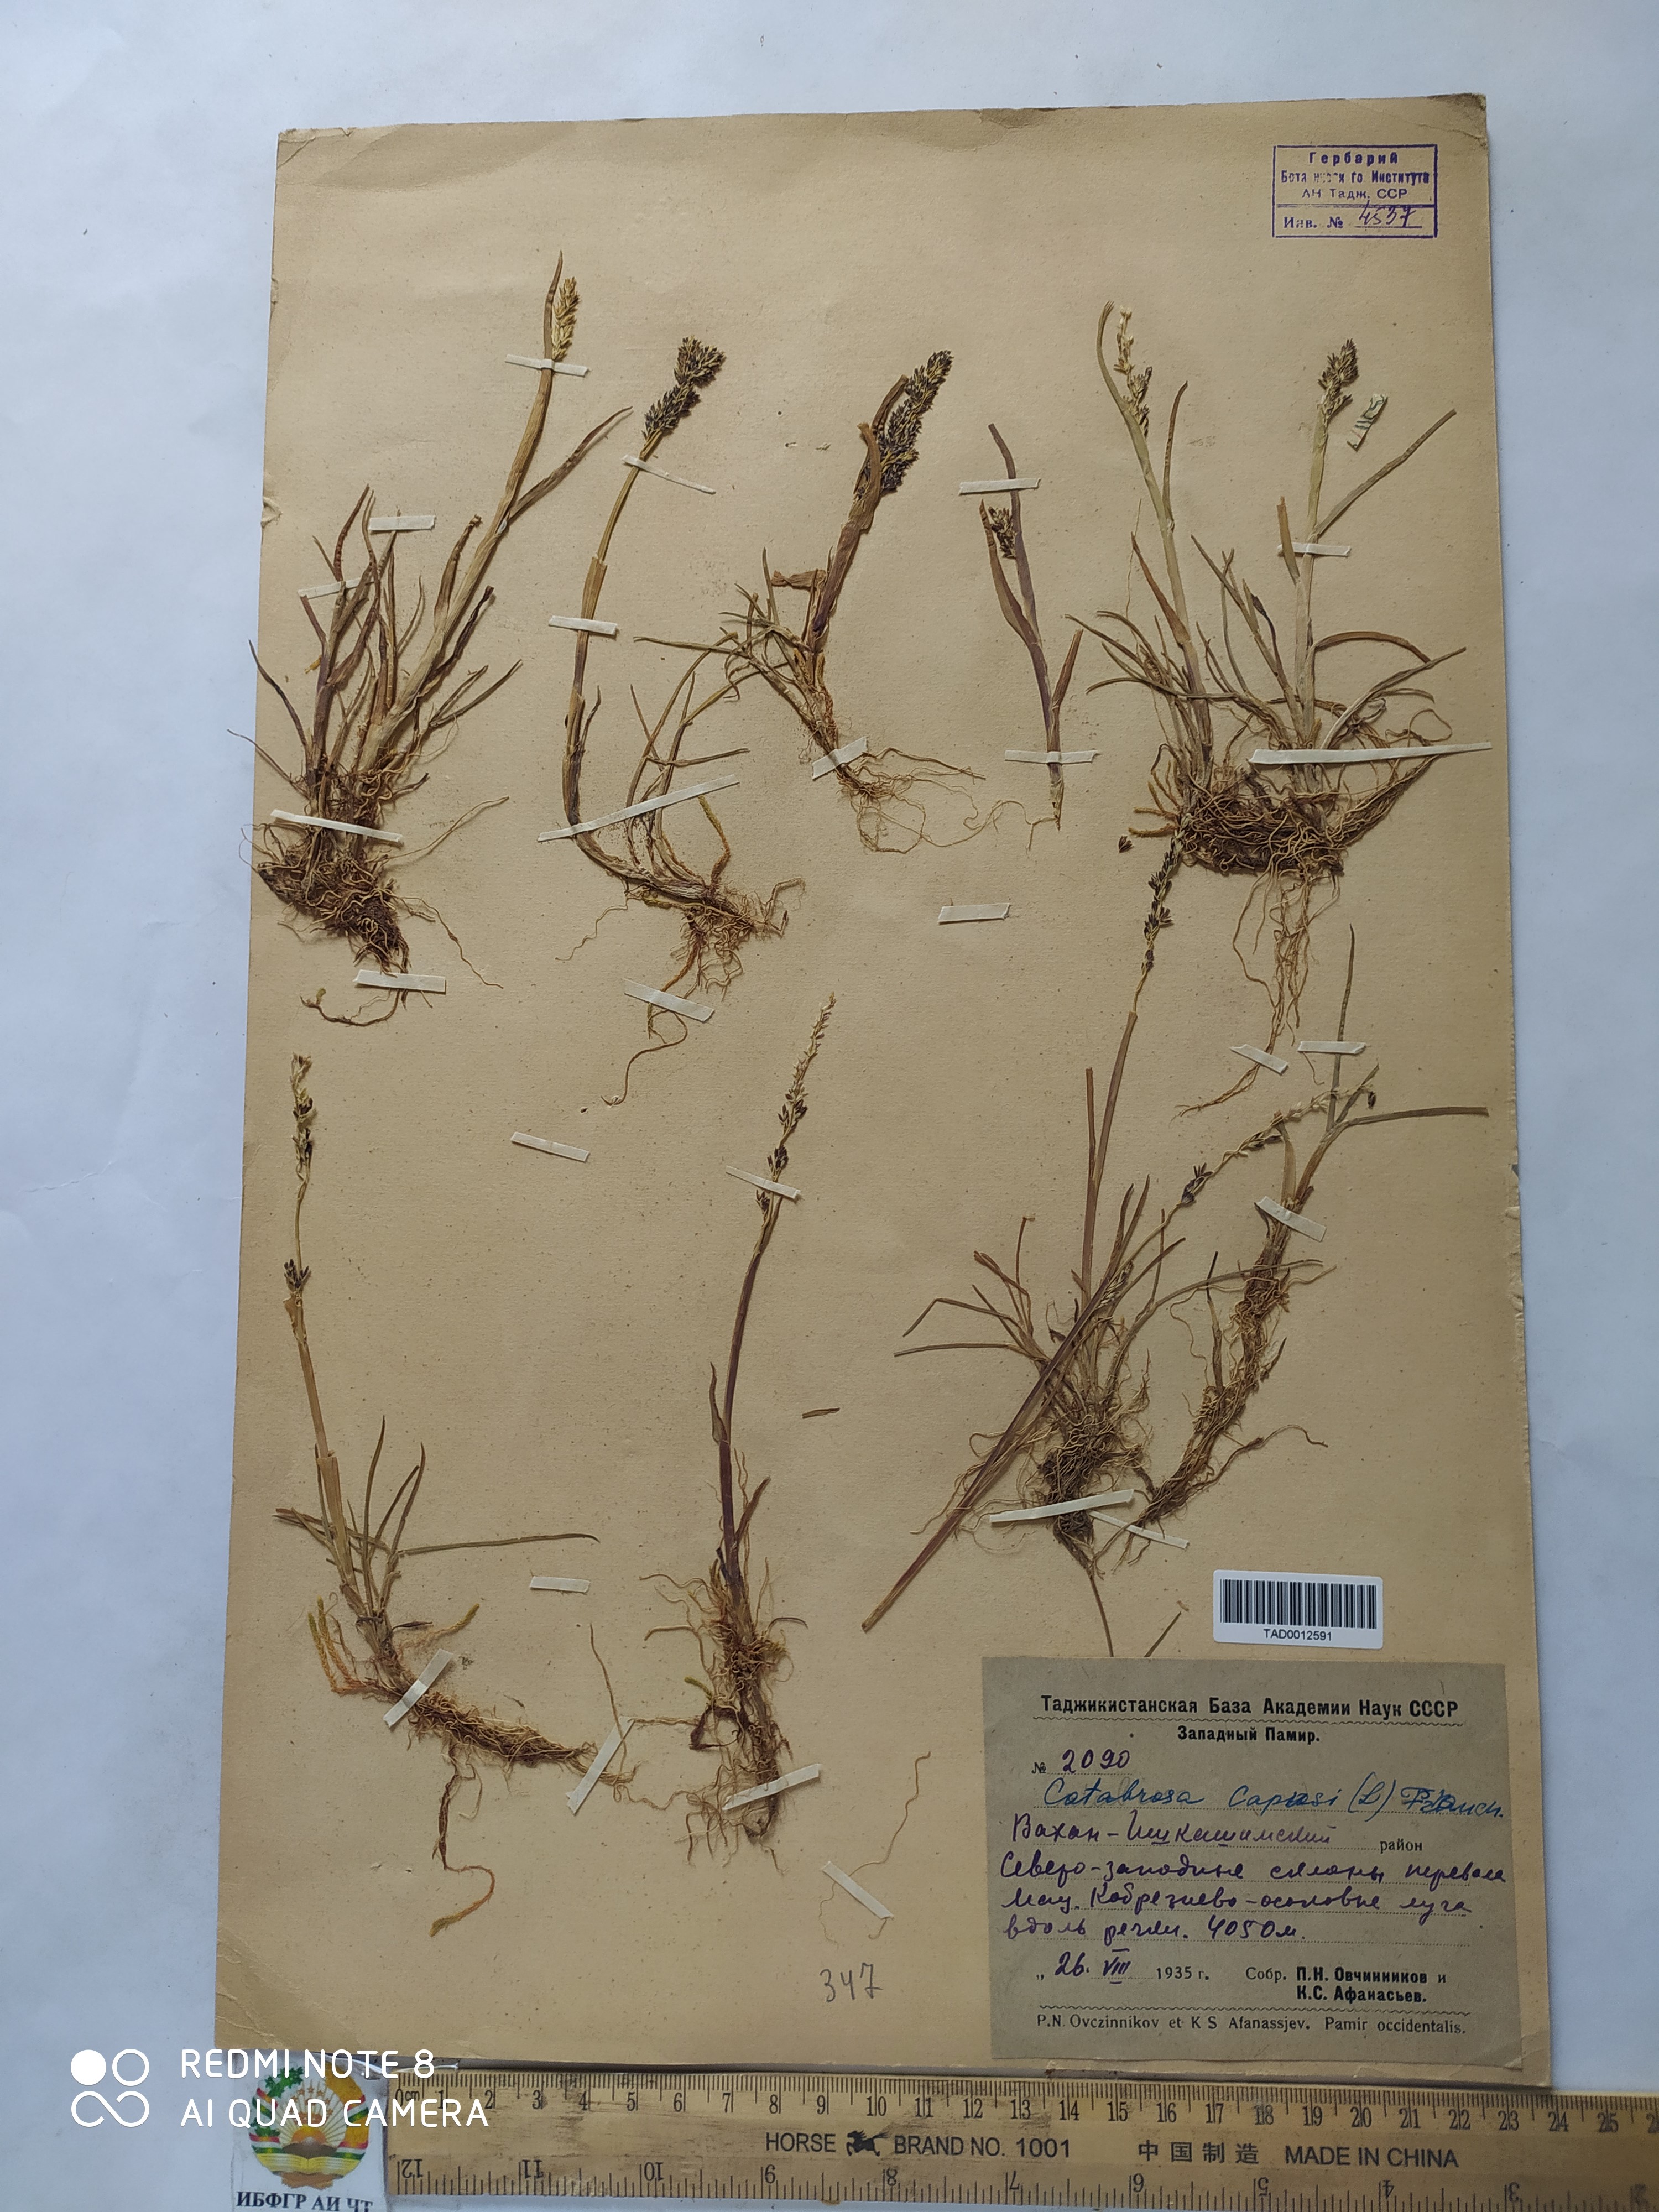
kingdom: Plantae
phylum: Tracheophyta
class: Liliopsida
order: Poales
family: Poaceae
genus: Catabrosa
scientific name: Catabrosa aquatica
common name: Whorl-grass
